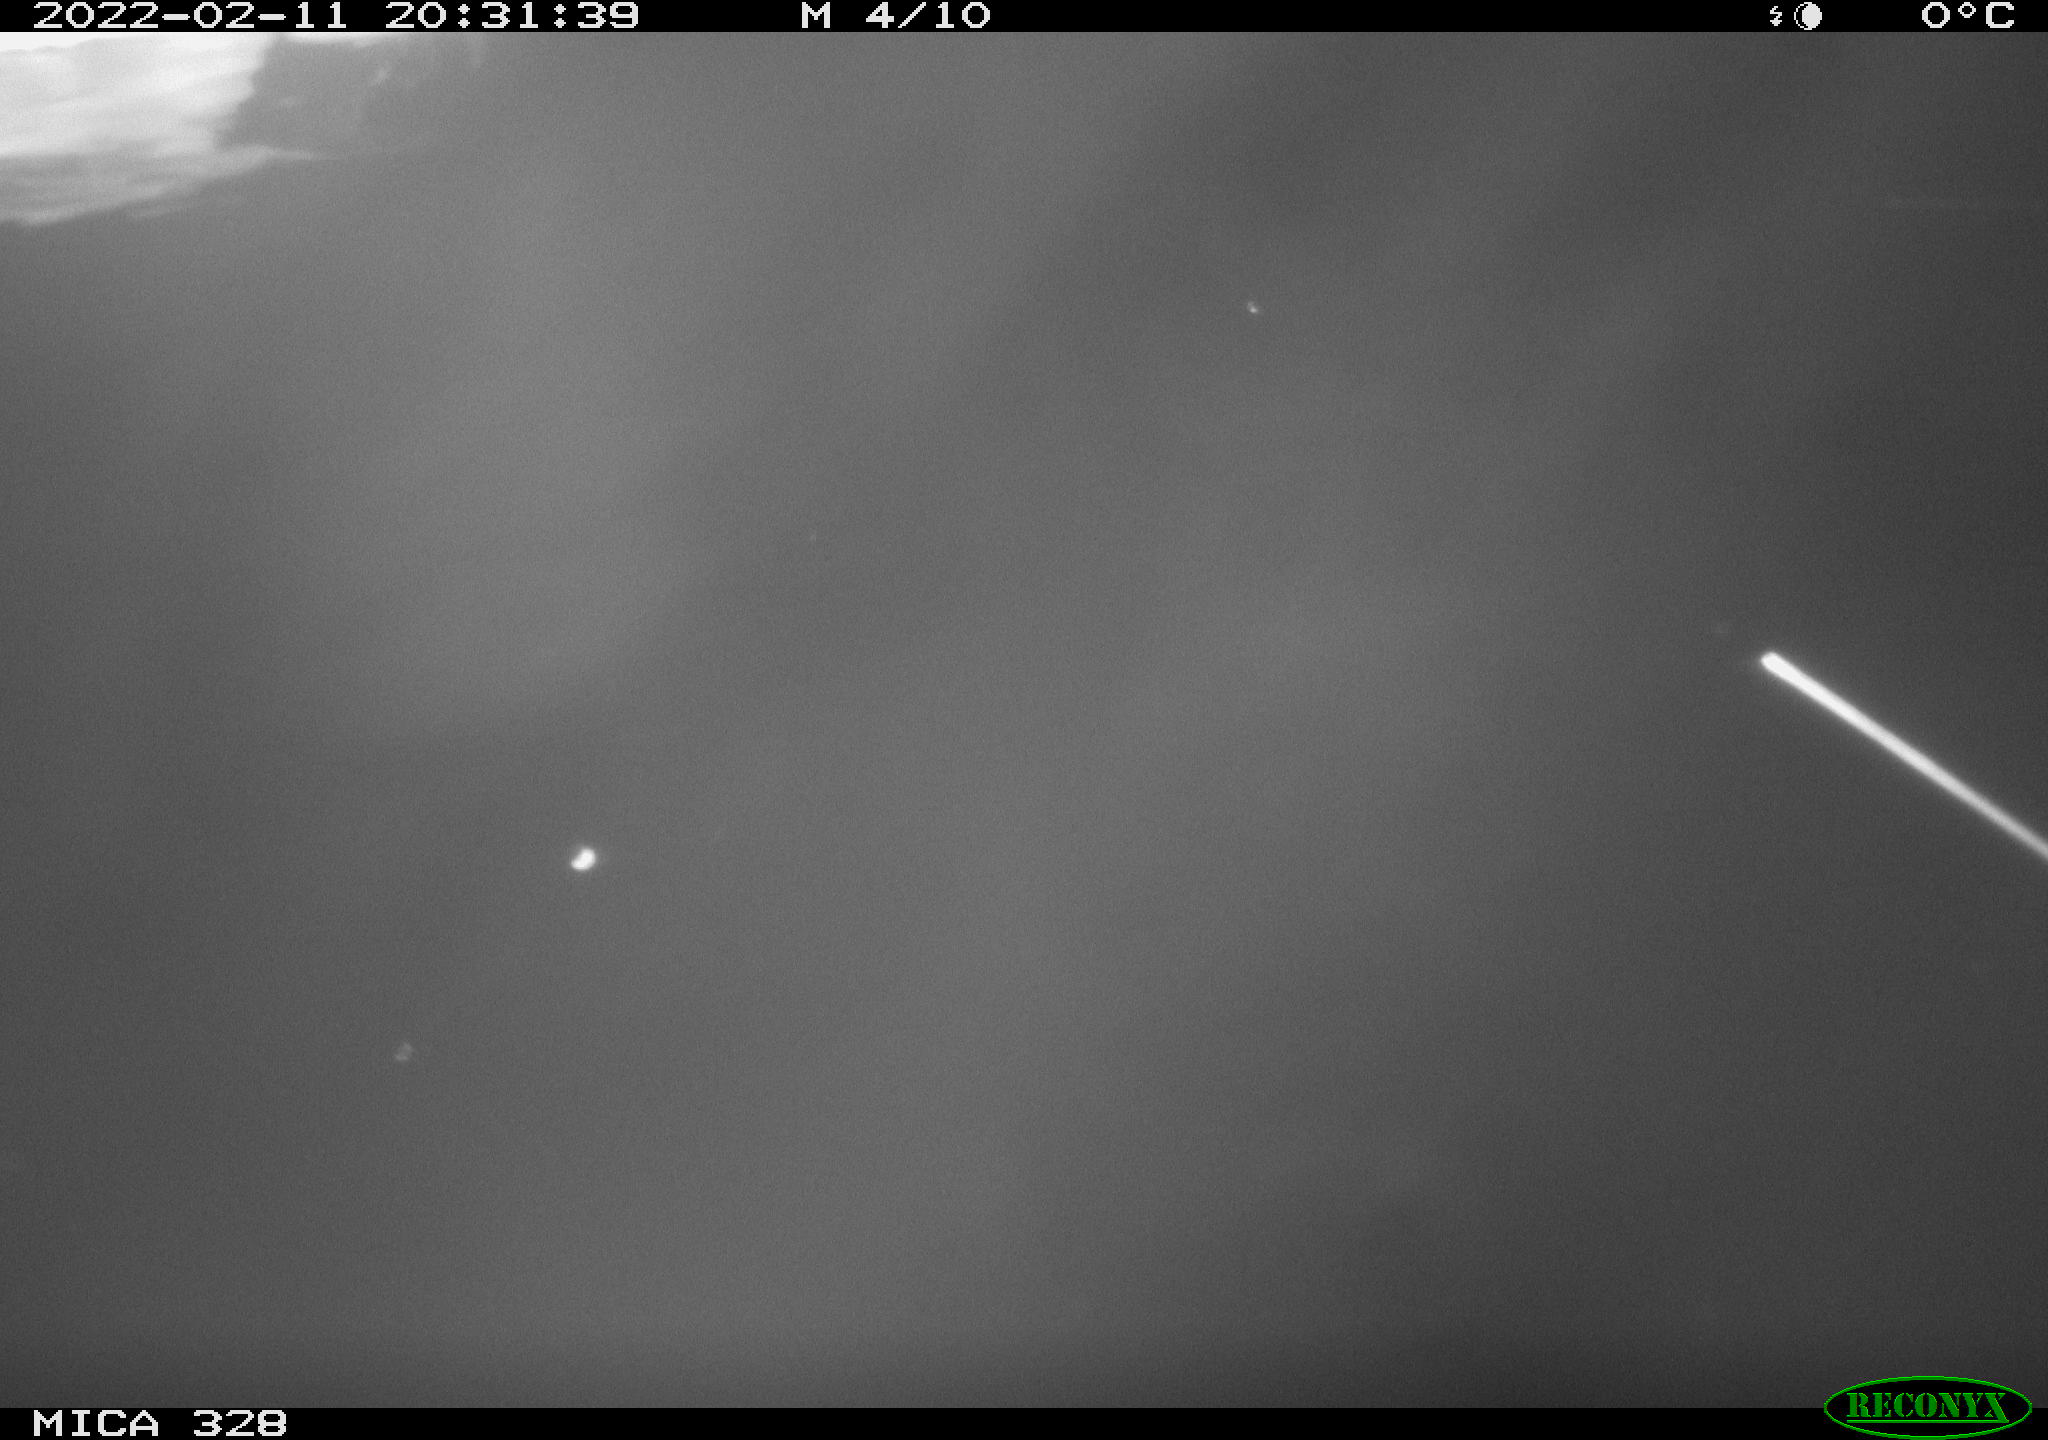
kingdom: Animalia
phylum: Chordata
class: Aves
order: Anseriformes
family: Anatidae
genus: Anas
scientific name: Anas platyrhynchos
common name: Mallard
